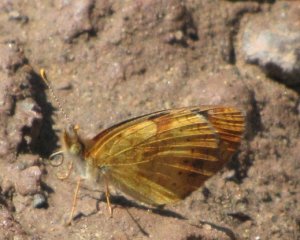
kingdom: Animalia
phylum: Arthropoda
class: Insecta
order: Lepidoptera
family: Nymphalidae
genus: Phyciodes
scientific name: Phyciodes tharos
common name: Northern Crescent
